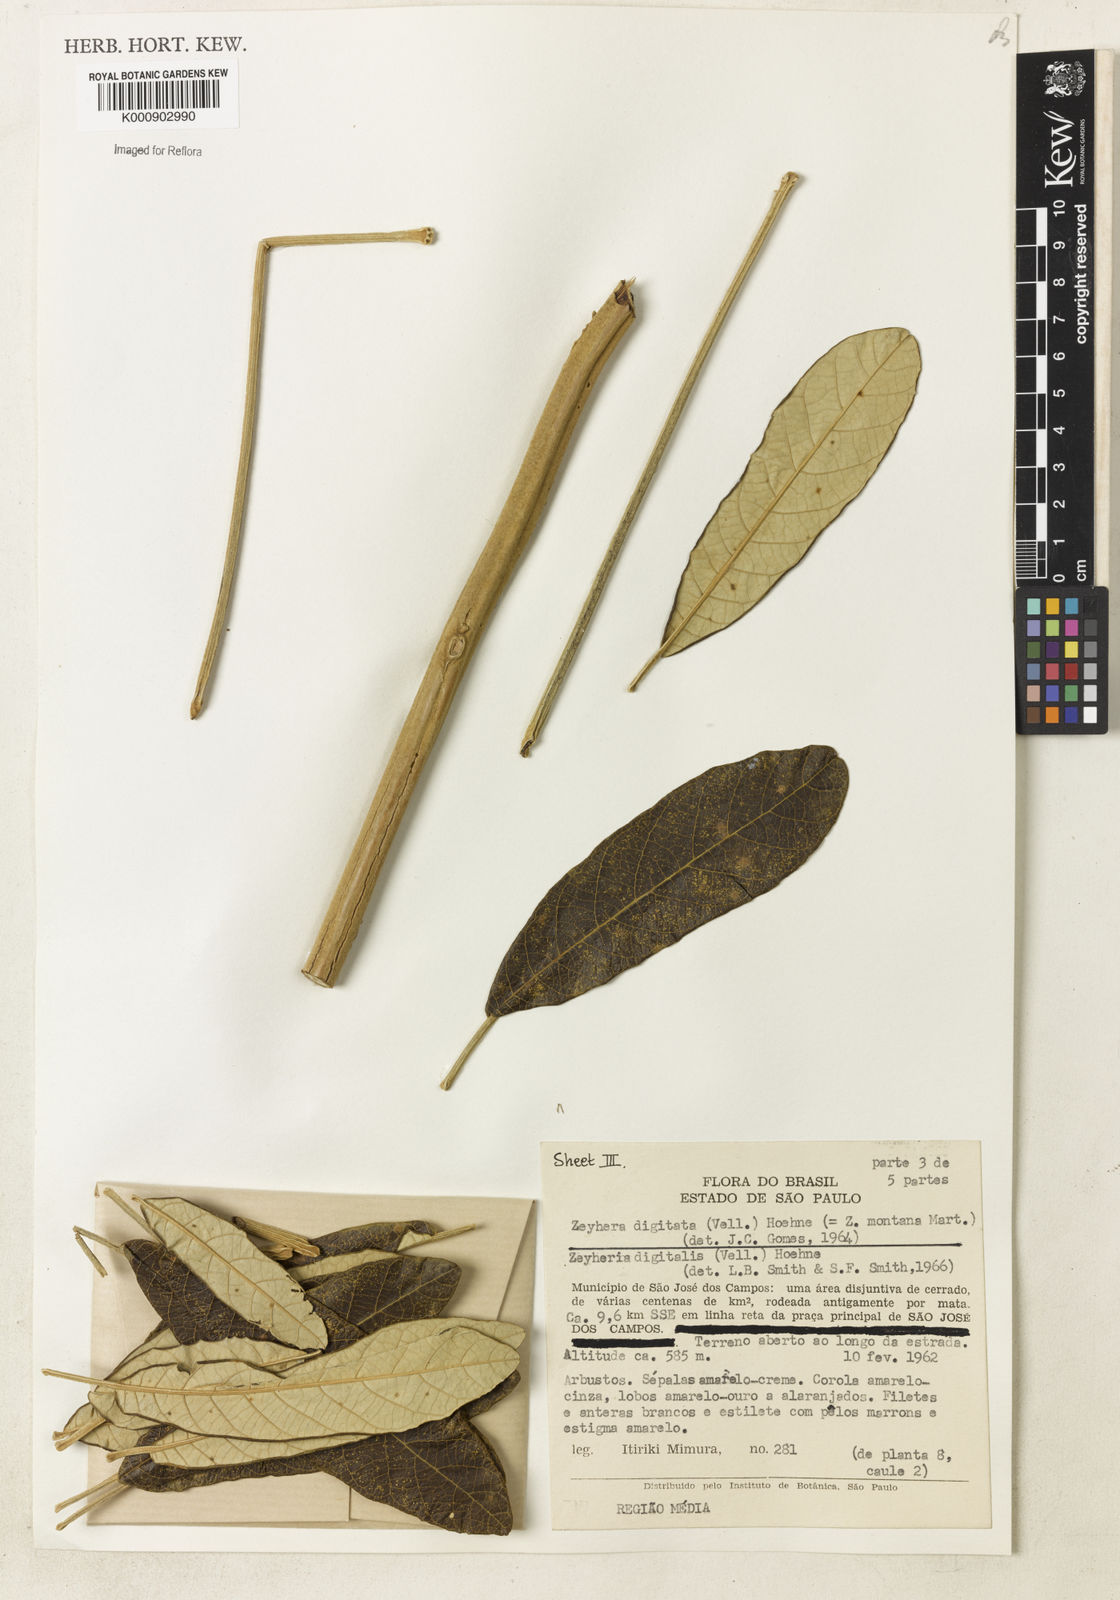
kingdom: Plantae
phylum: Tracheophyta
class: Magnoliopsida
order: Lamiales
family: Bignoniaceae
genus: Zeyheria
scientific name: Zeyheria
